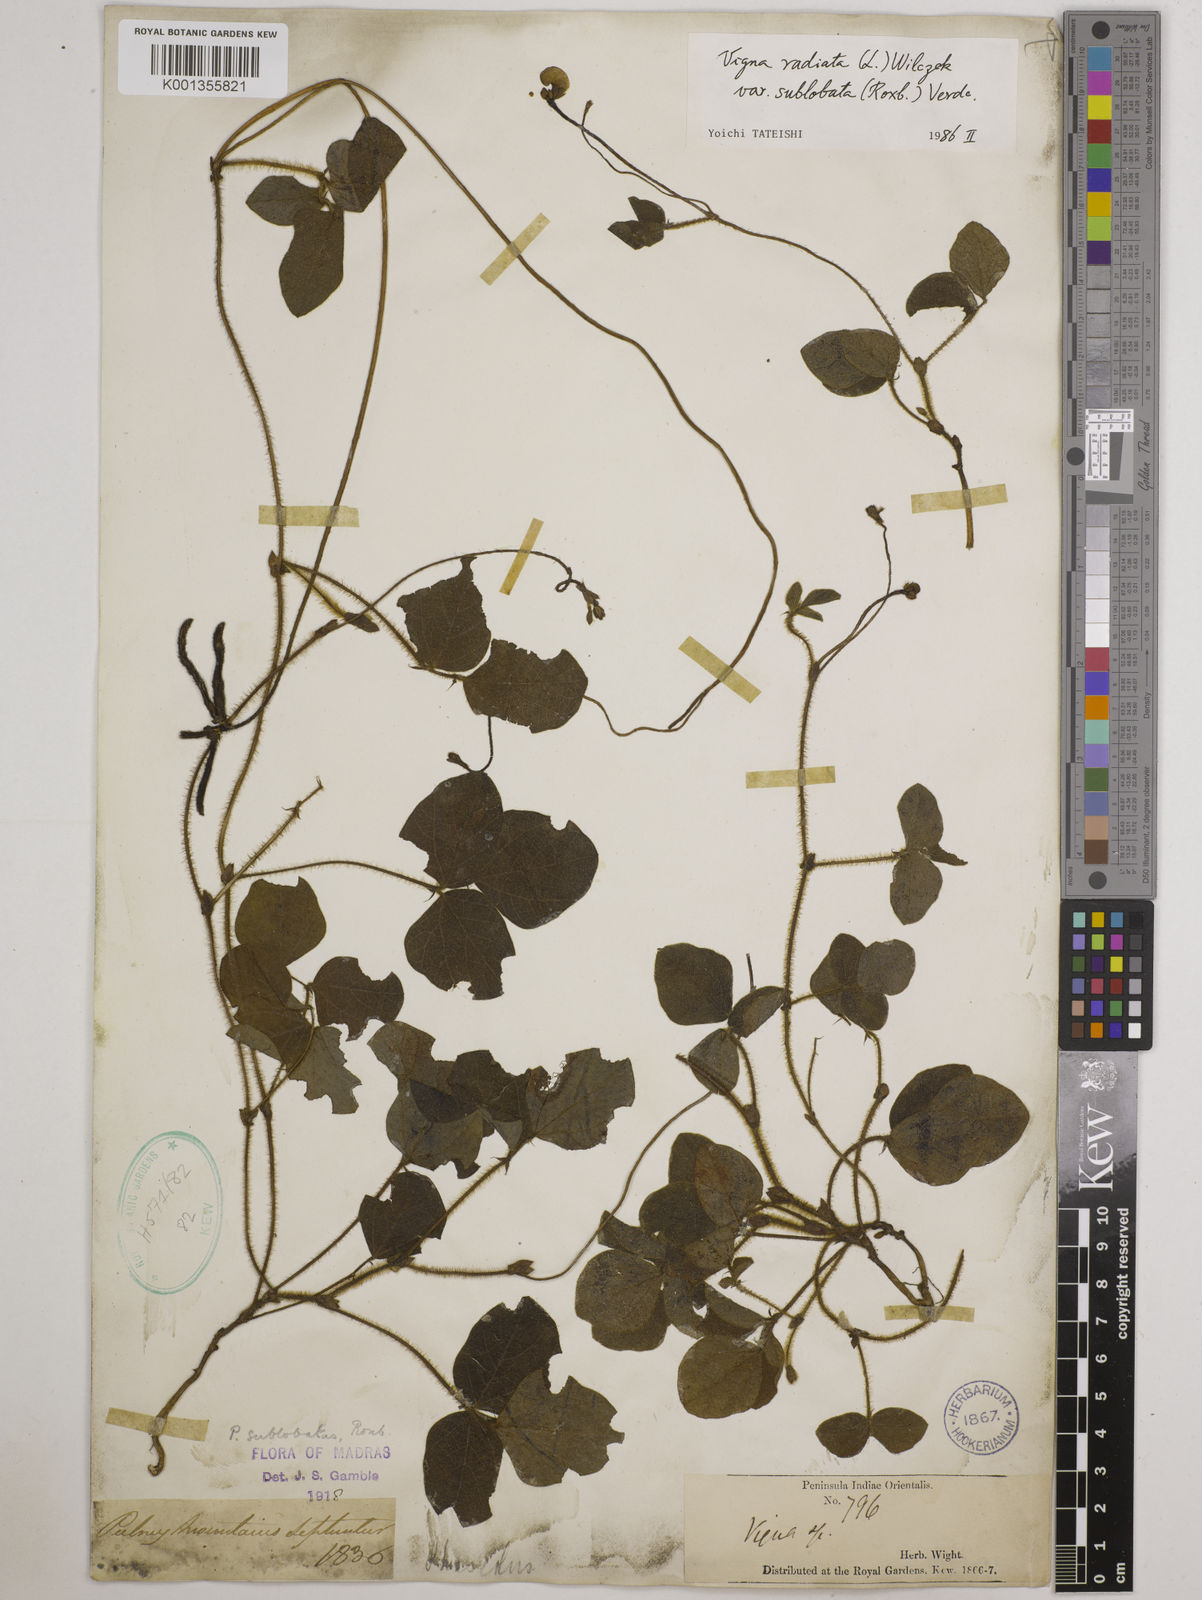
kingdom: Plantae
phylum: Tracheophyta
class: Magnoliopsida
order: Fabales
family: Fabaceae
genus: Vigna
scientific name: Vigna radiata
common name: Mung-bean
